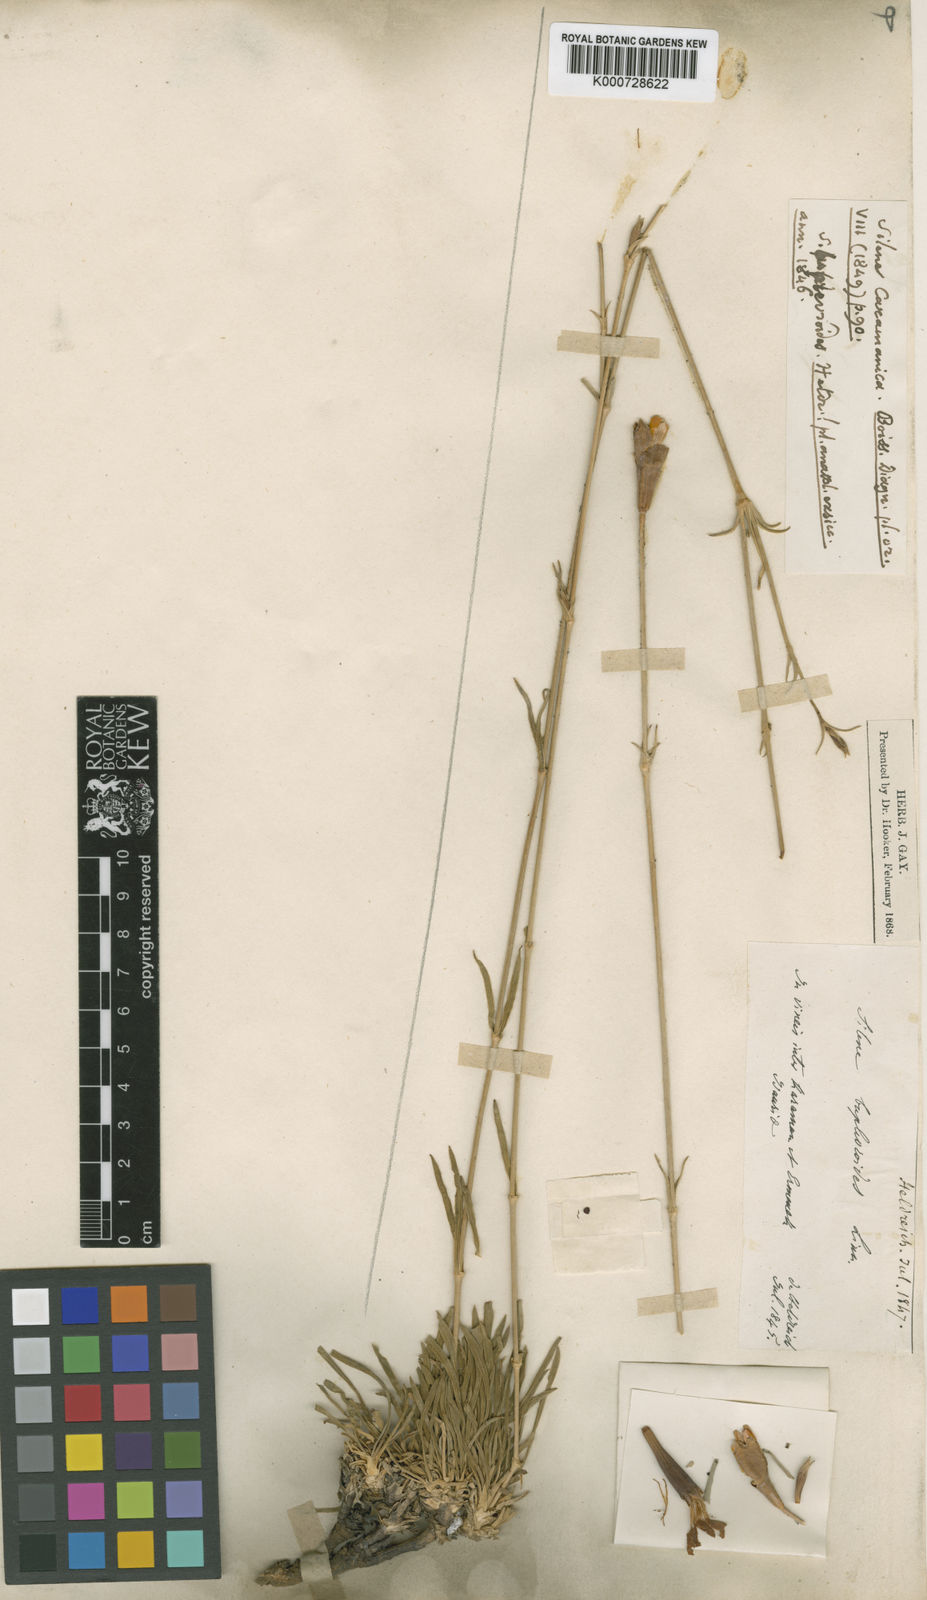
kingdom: Plantae
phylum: Tracheophyta
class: Magnoliopsida
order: Caryophyllales
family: Caryophyllaceae
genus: Silene
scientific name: Silene caramanica
